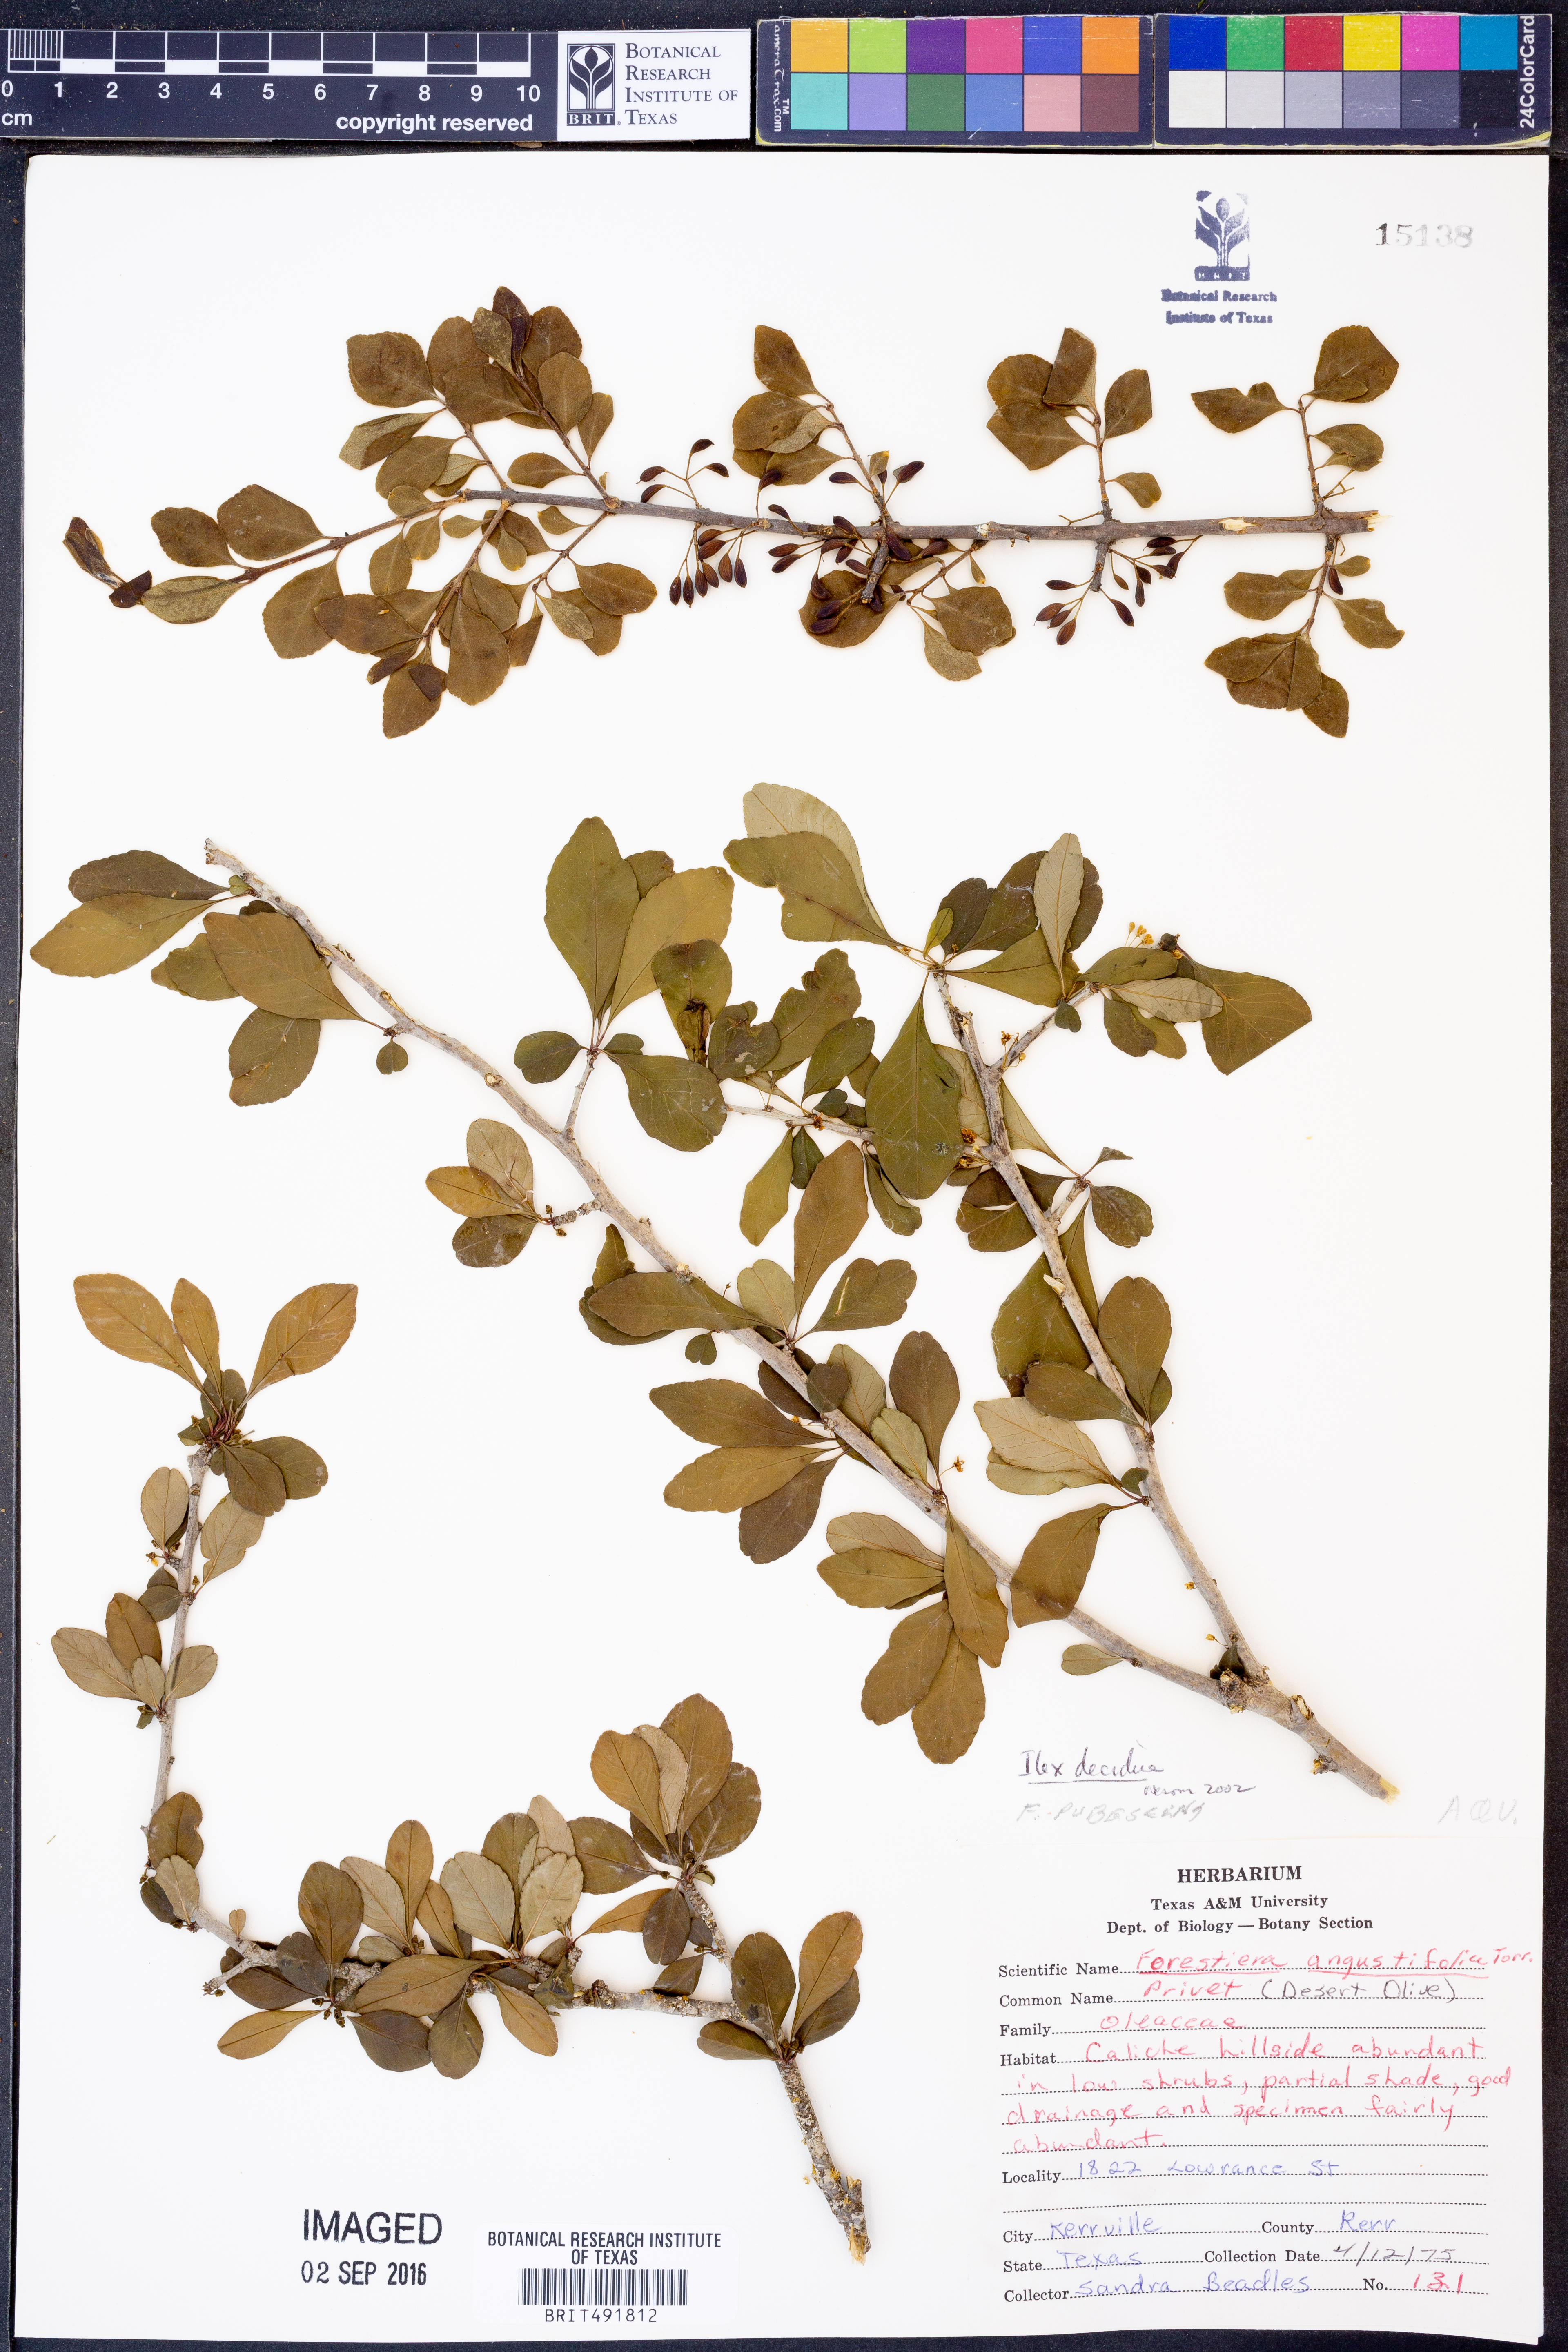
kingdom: Plantae
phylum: Tracheophyta
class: Magnoliopsida
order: Aquifoliales
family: Aquifoliaceae
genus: Ilex
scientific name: Ilex decidua
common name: Possum-haw
